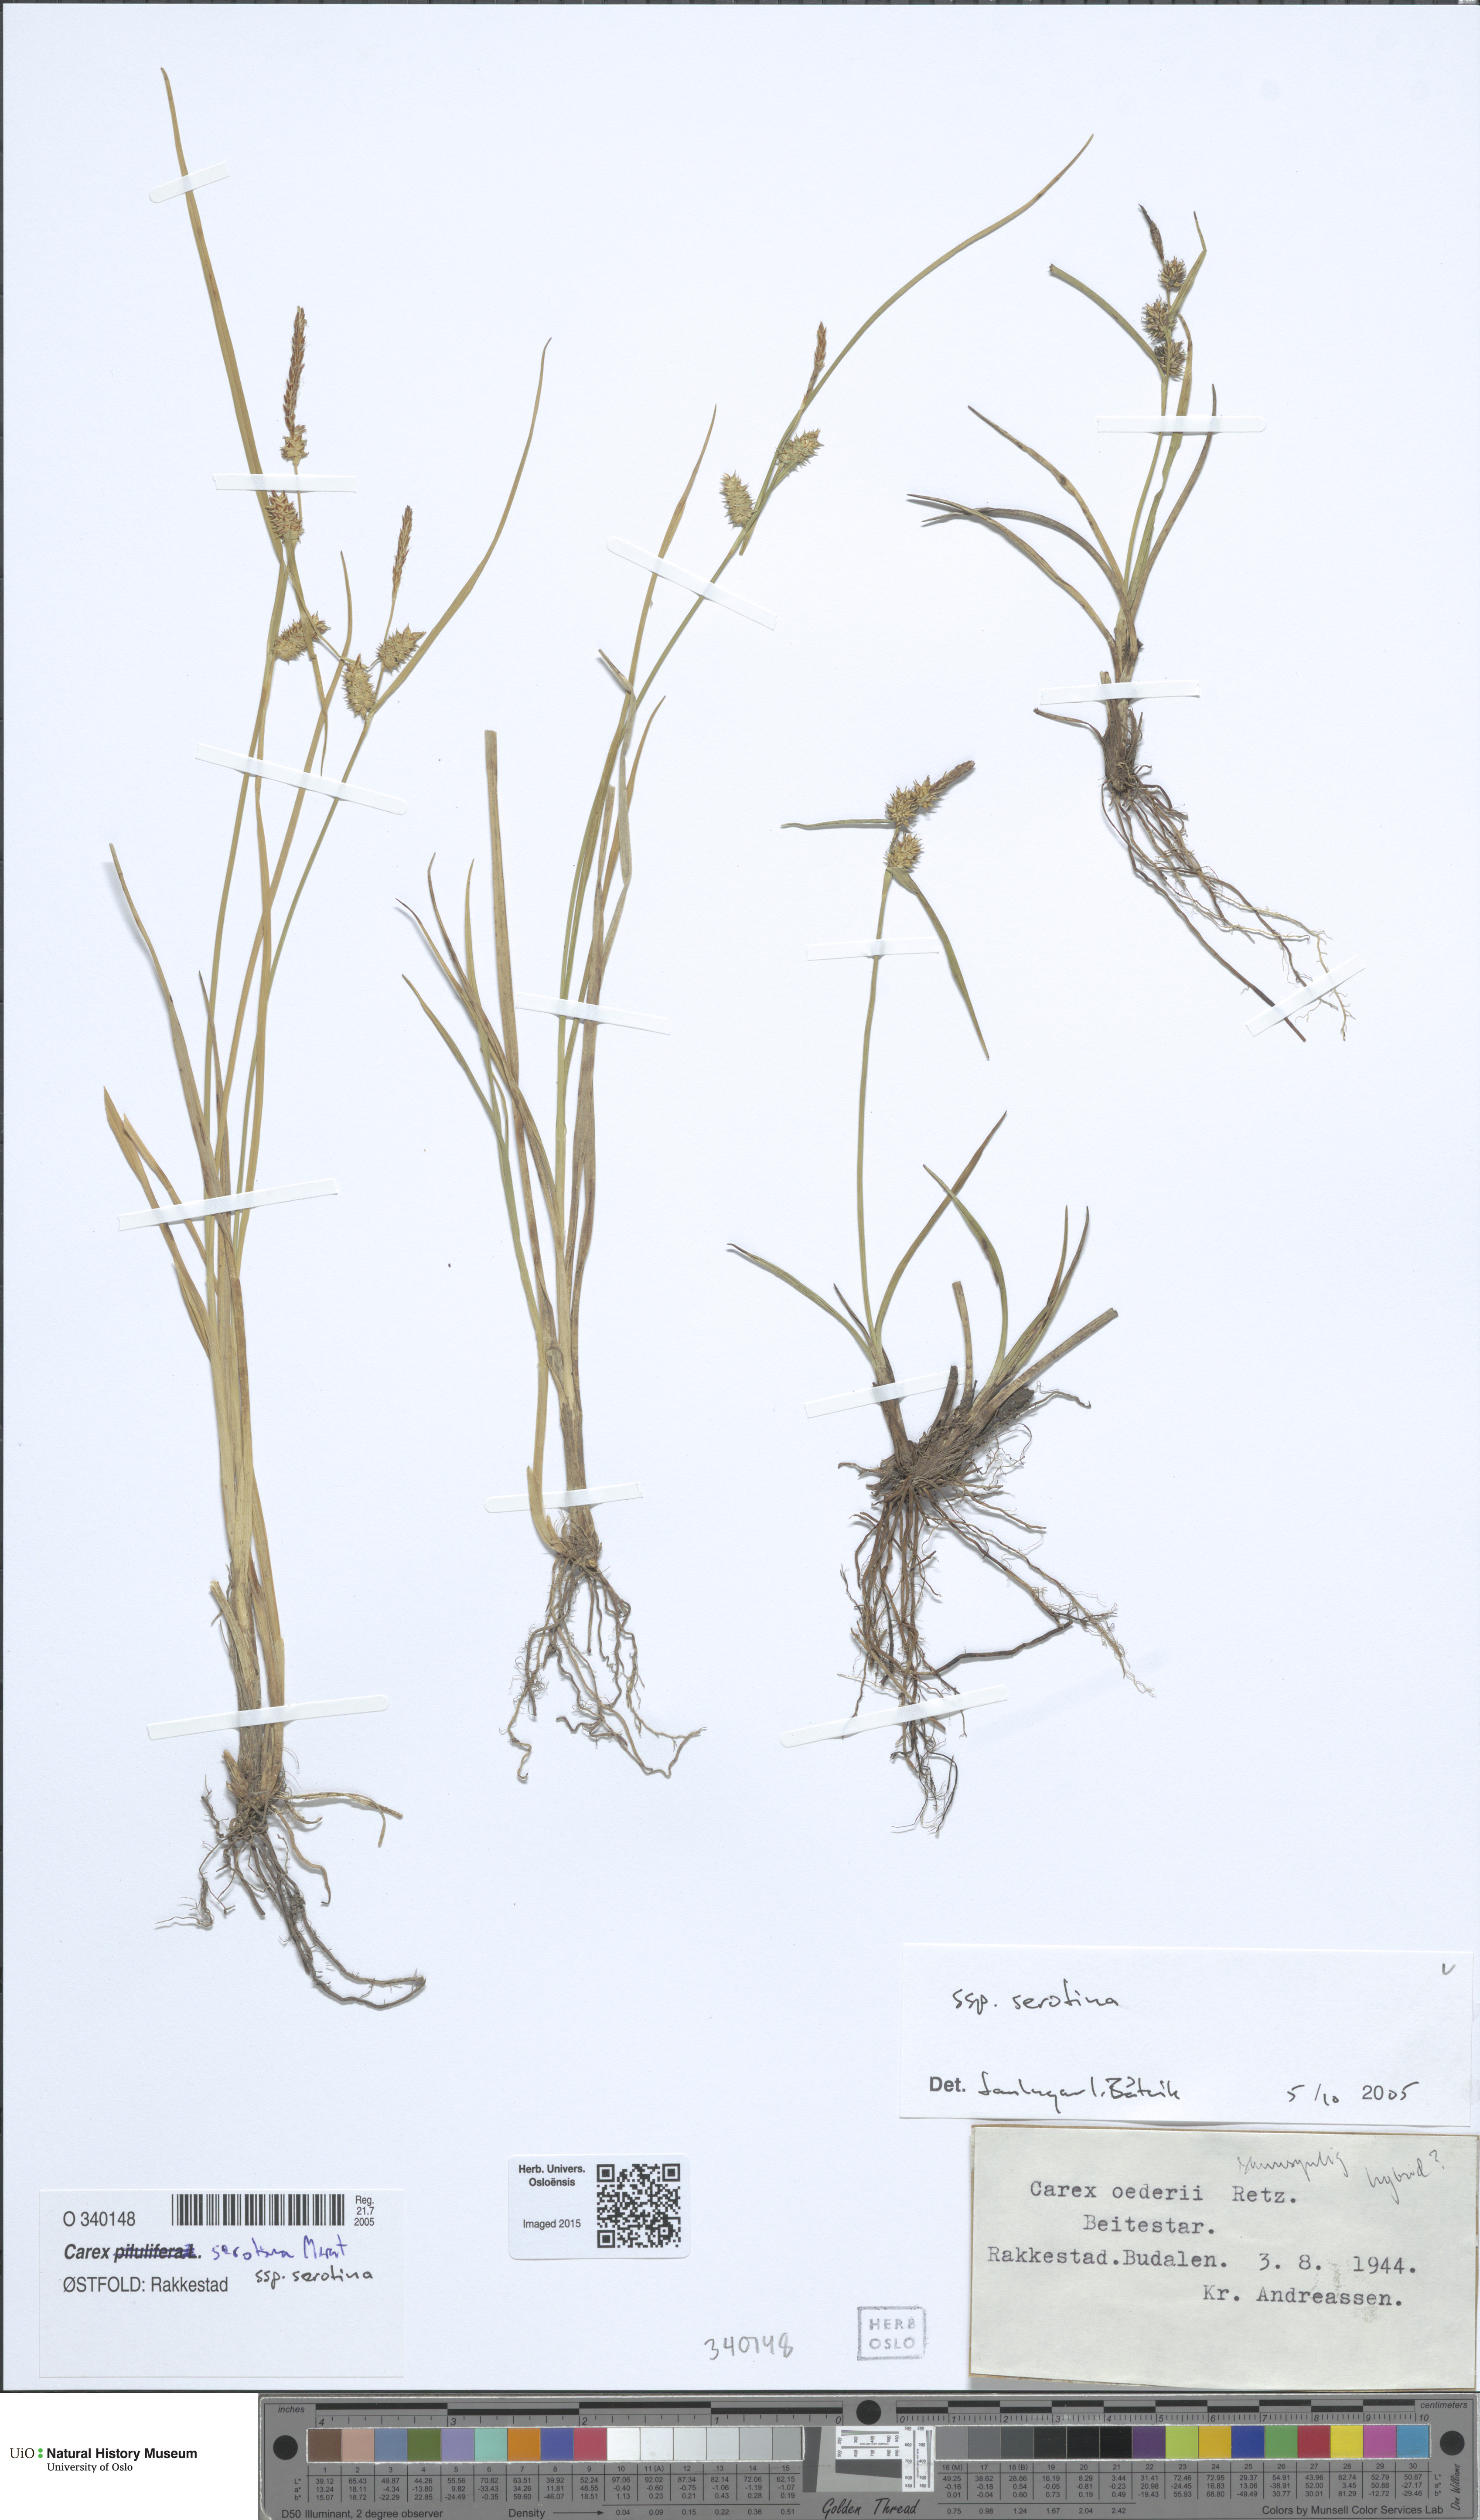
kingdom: Plantae
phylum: Tracheophyta
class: Liliopsida
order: Poales
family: Cyperaceae
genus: Carex
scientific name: Carex oederi
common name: Common & small-fruited yellow-sedge
